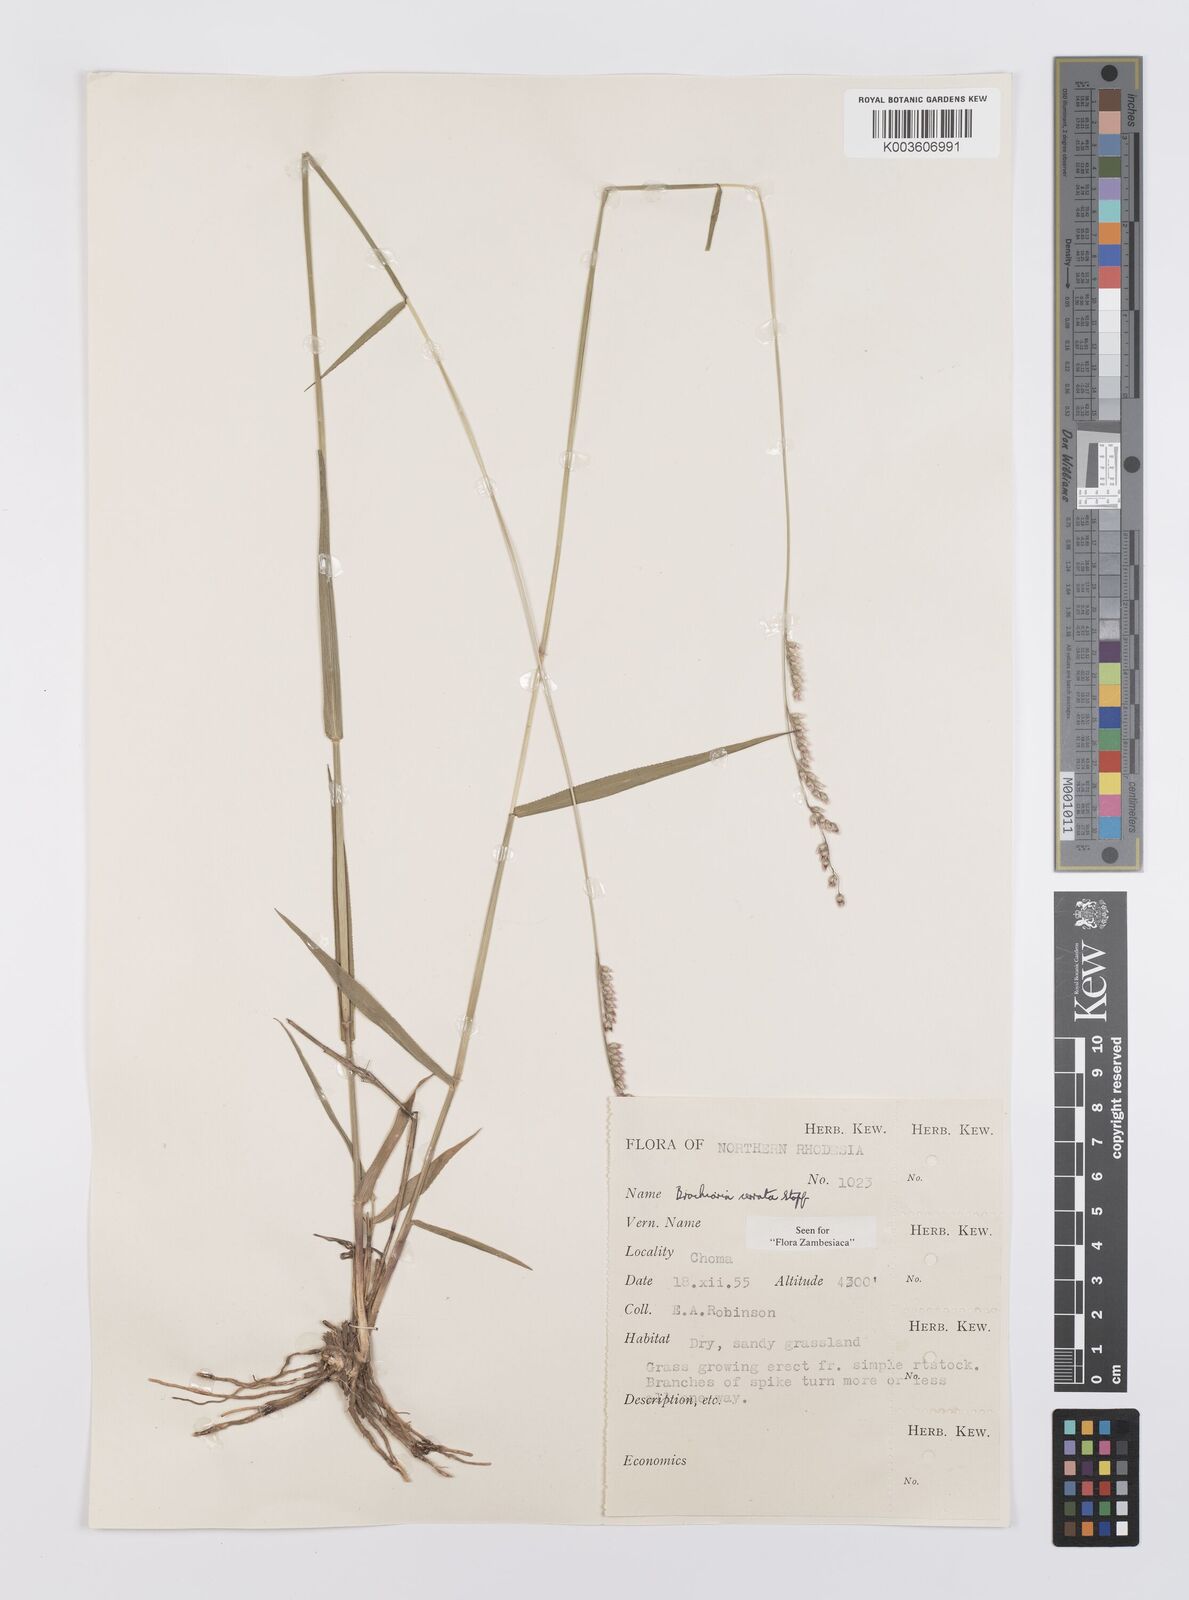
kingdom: Plantae
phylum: Tracheophyta
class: Liliopsida
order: Poales
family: Poaceae
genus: Urochloa
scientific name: Urochloa serrata
